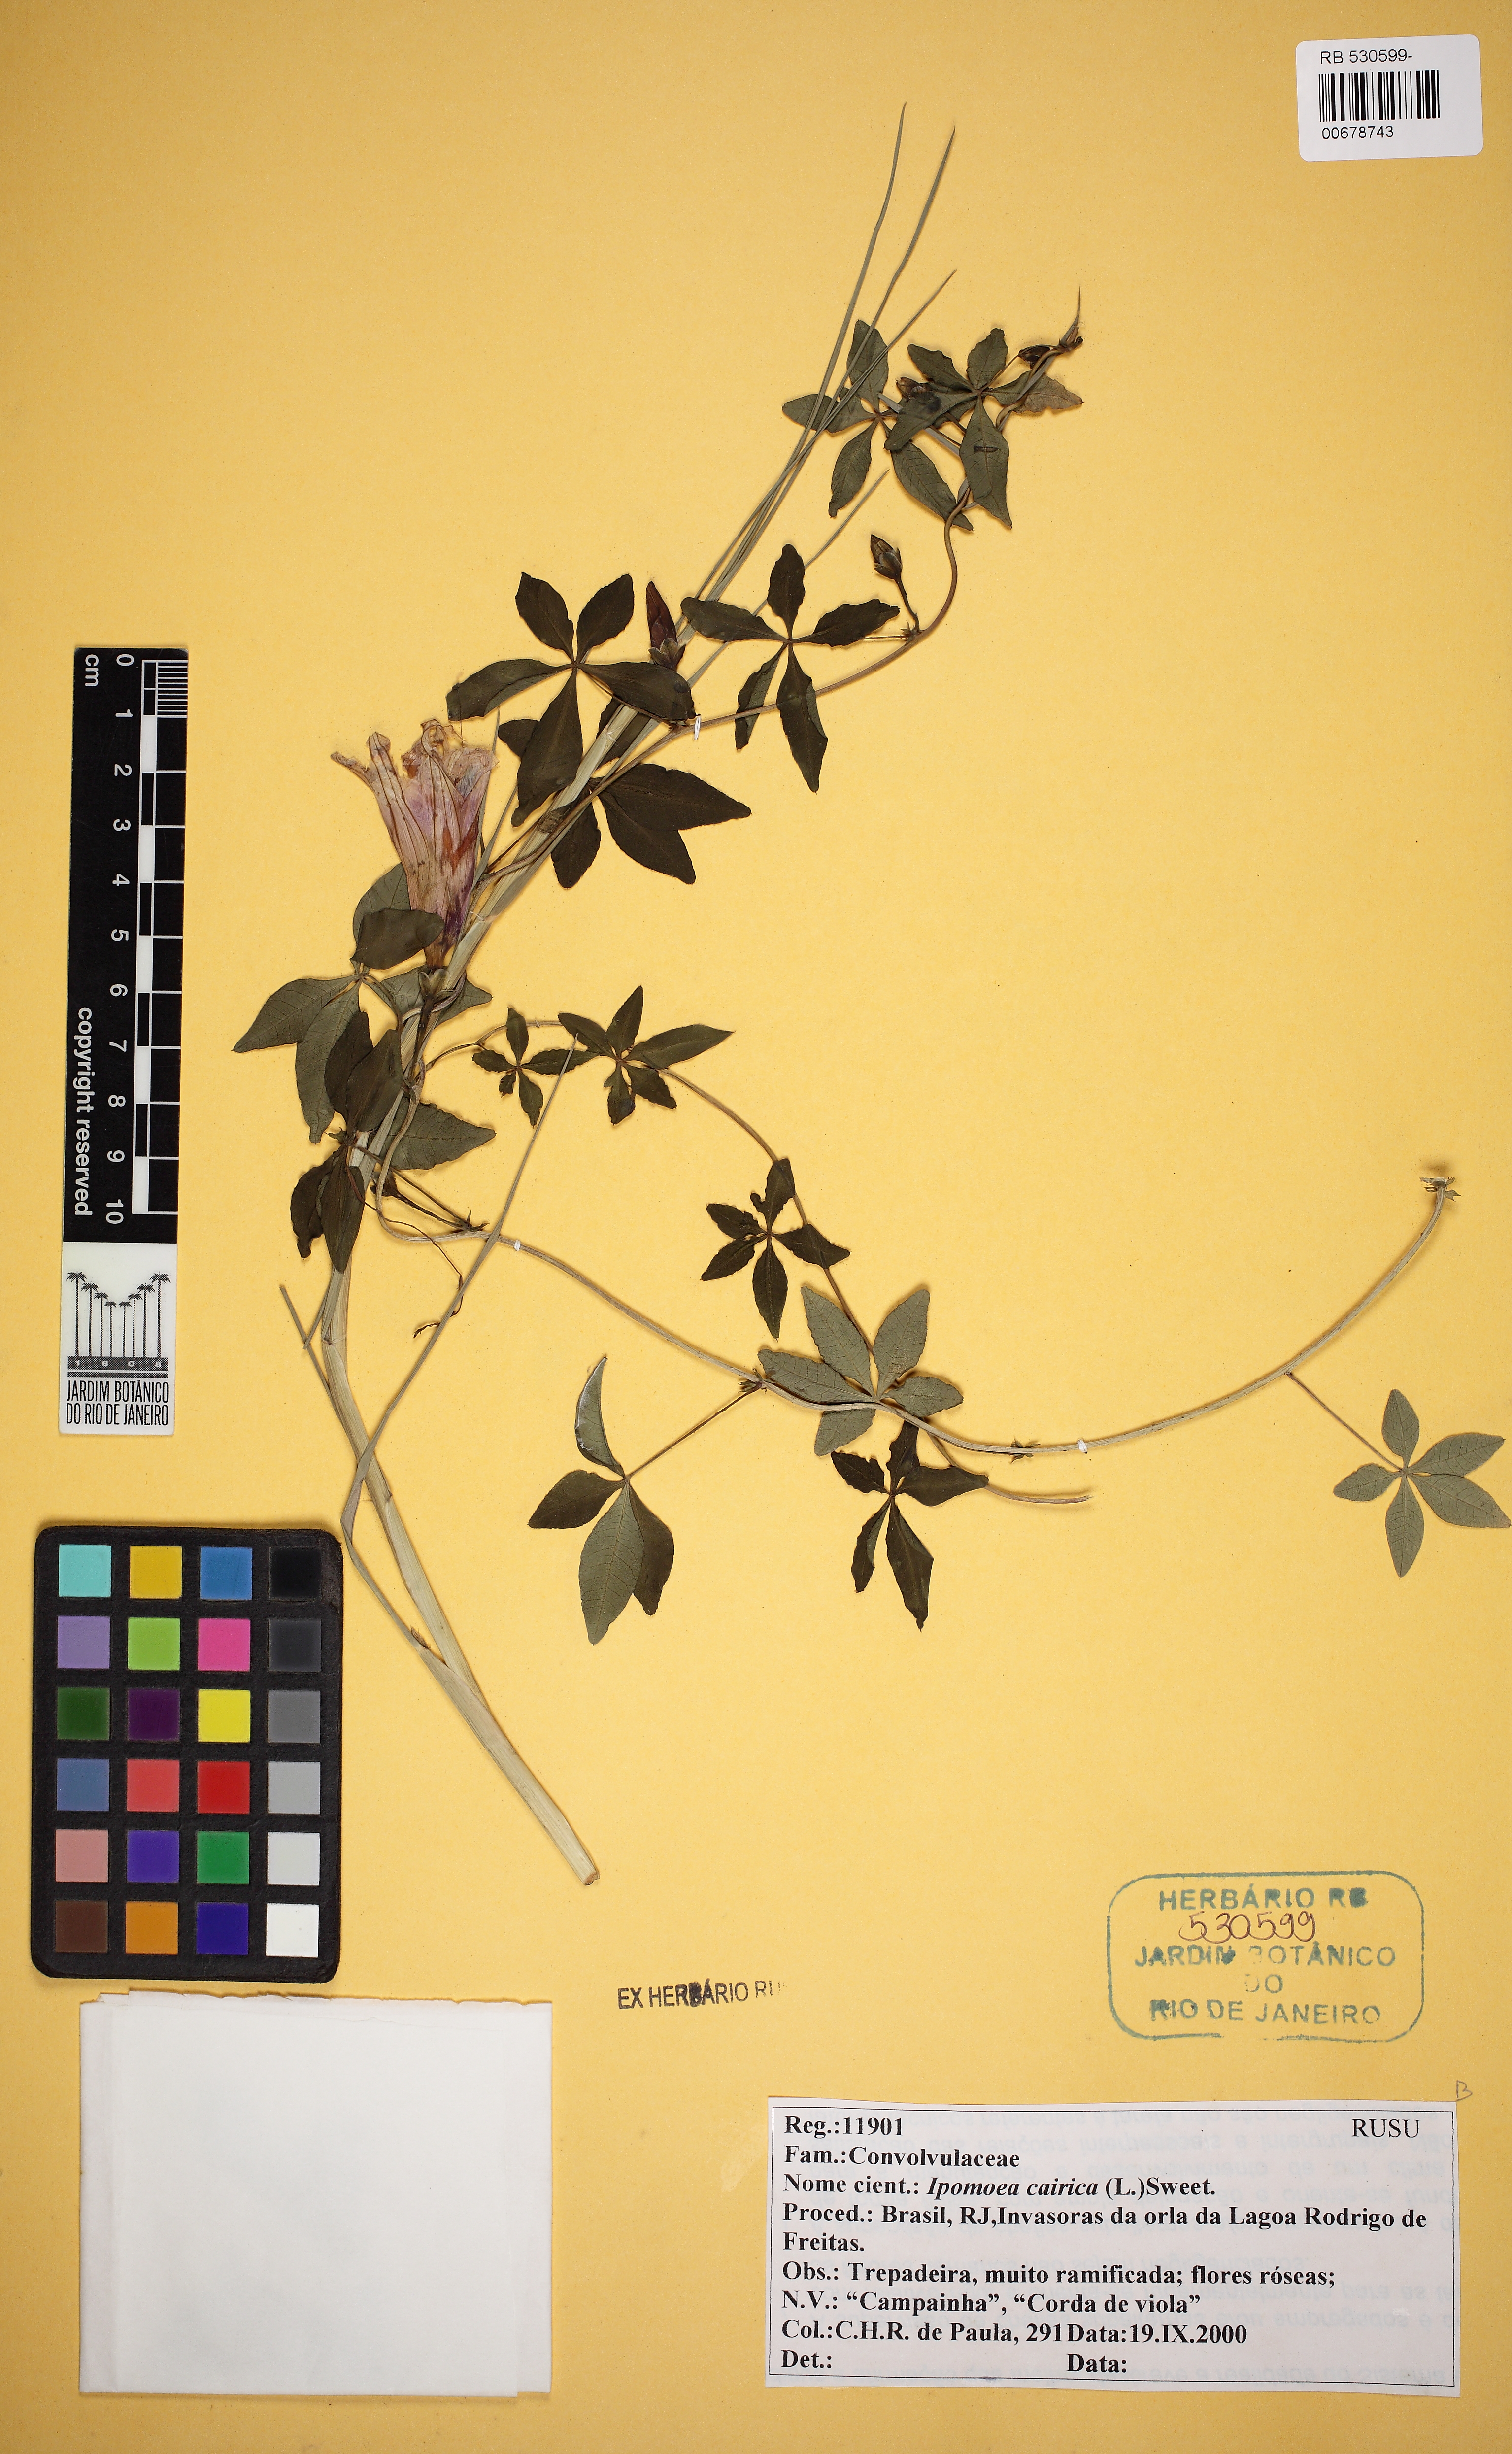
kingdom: Plantae
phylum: Tracheophyta
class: Magnoliopsida
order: Solanales
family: Convolvulaceae
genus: Ipomoea
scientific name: Ipomoea cairica
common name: Mile a minute vine
